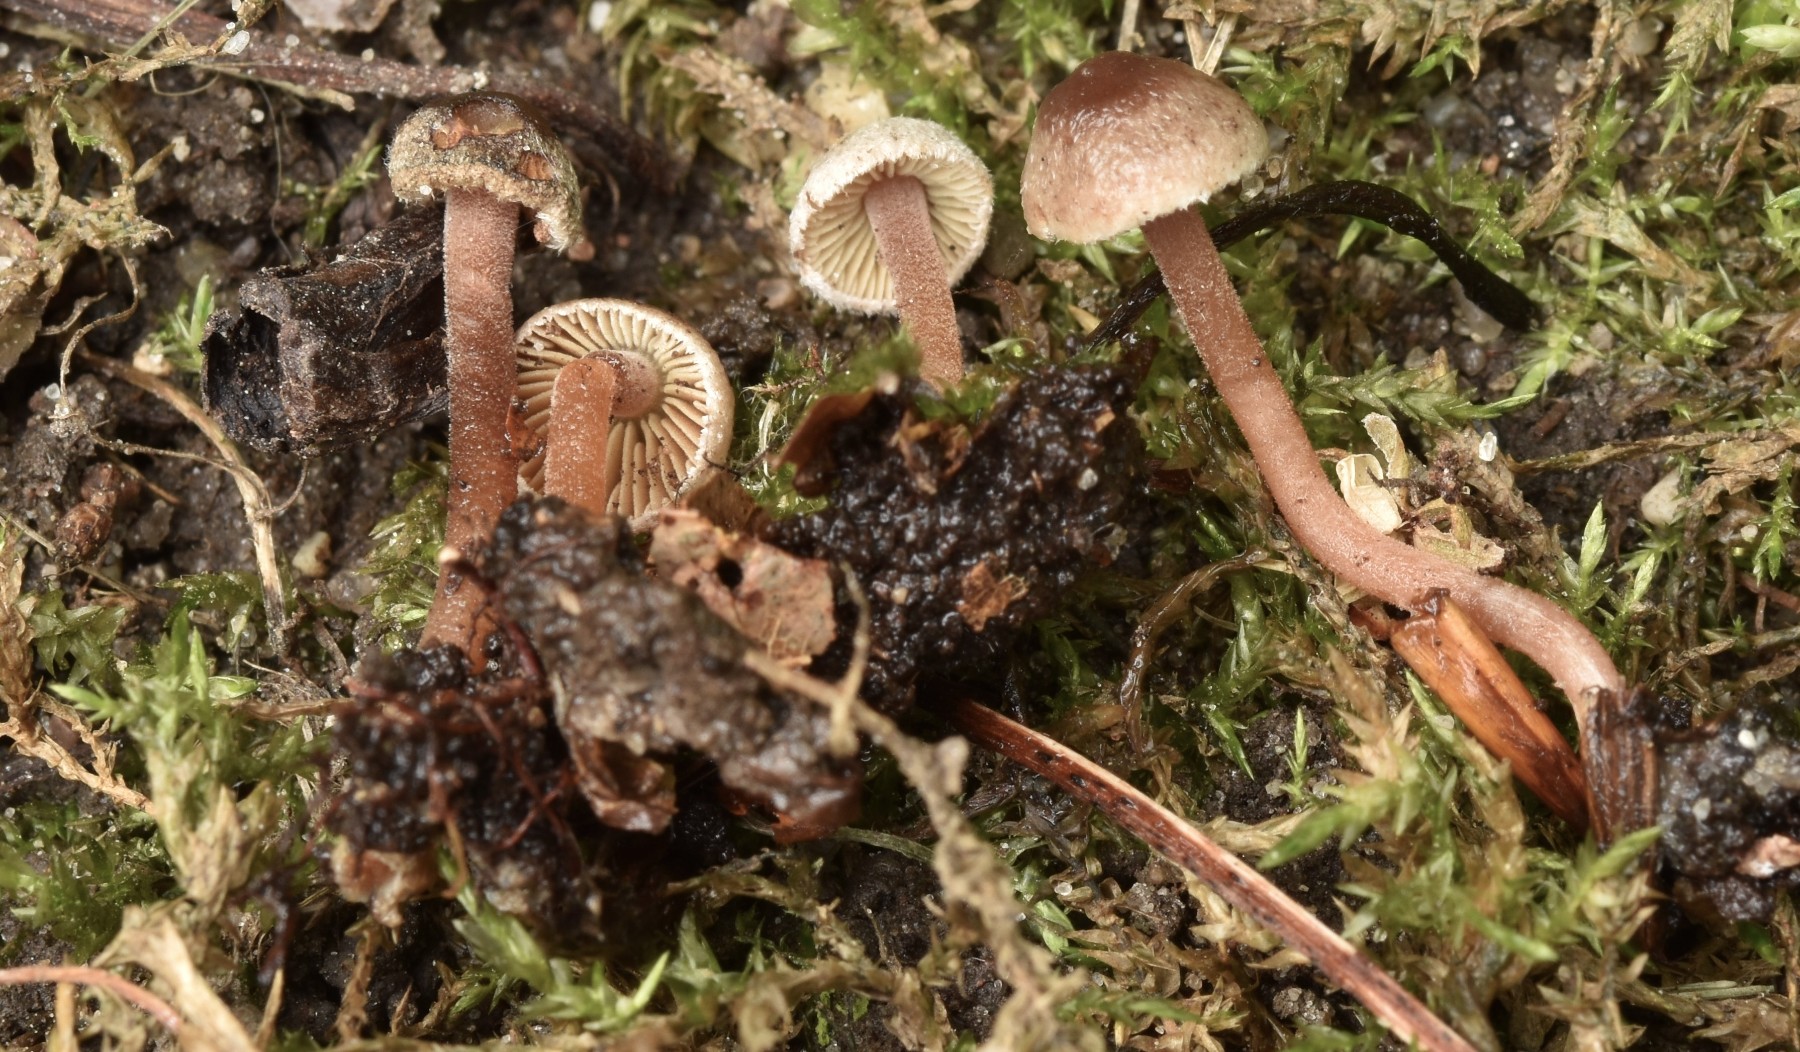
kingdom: Fungi
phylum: Basidiomycota
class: Agaricomycetes
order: Agaricales
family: Inocybaceae
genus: Inocybe
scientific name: Inocybe petiginosa
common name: liden trævlhat
